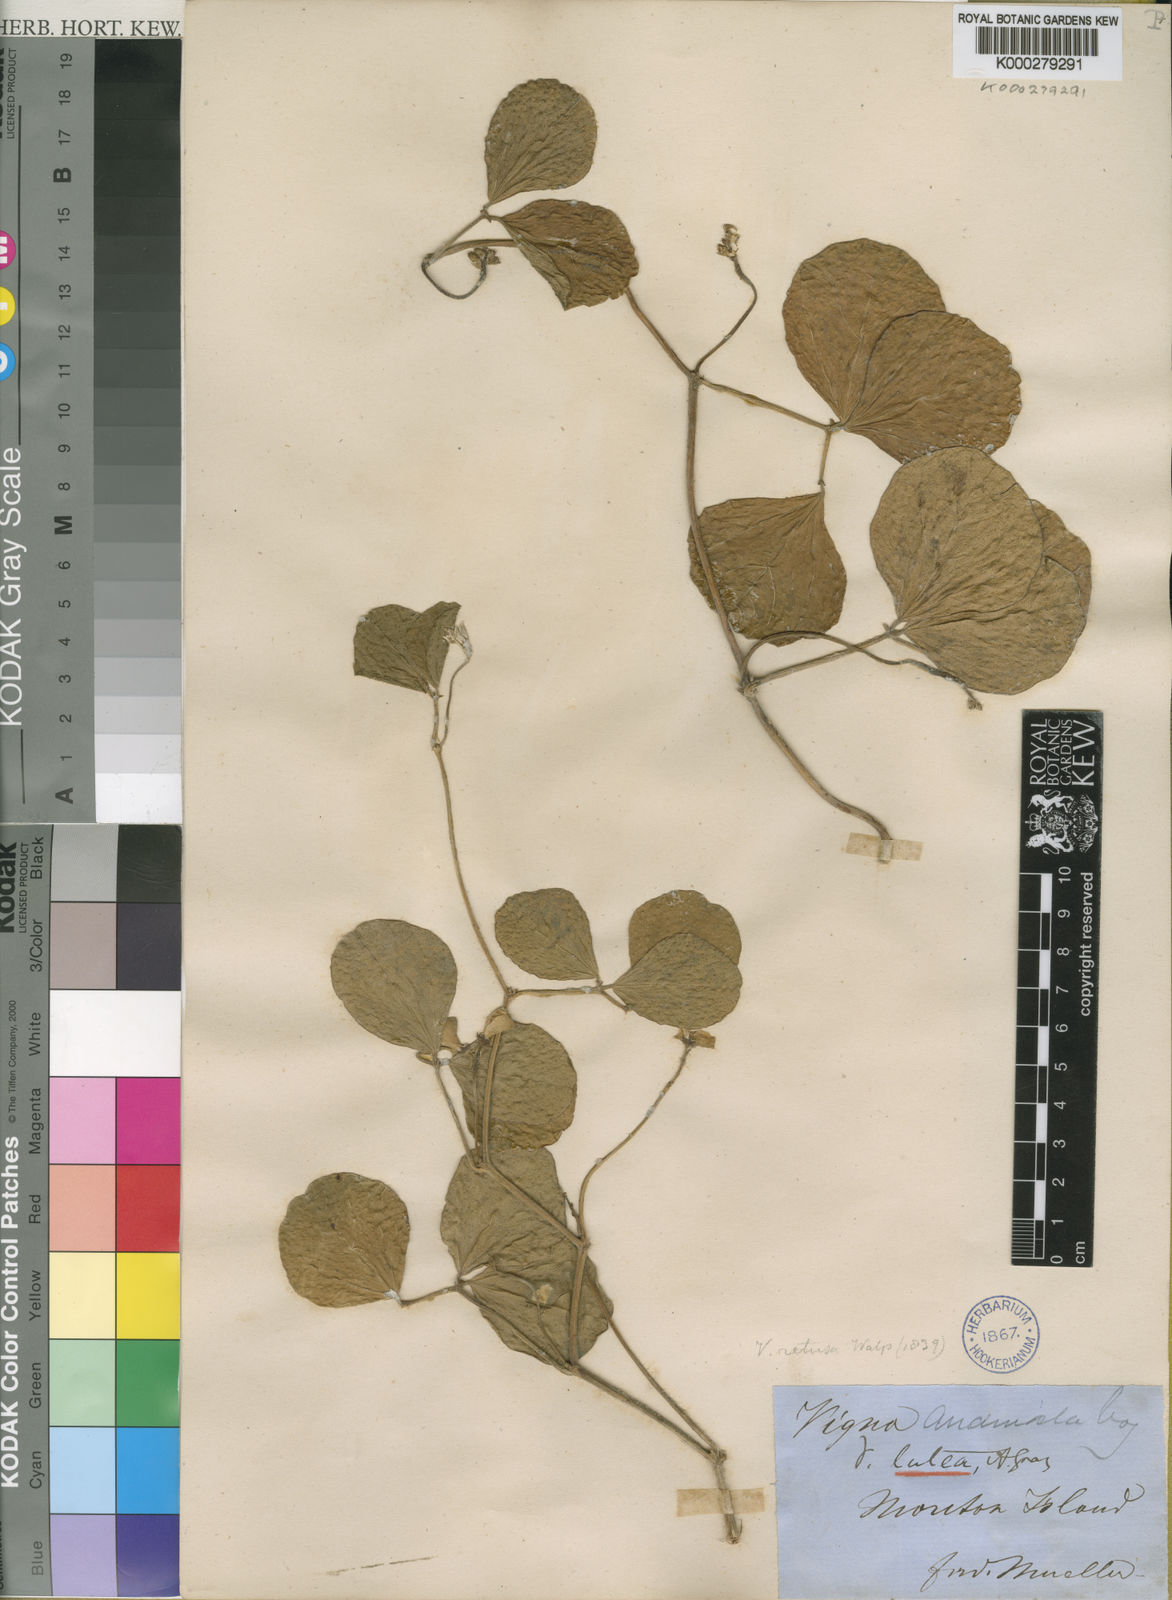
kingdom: Plantae
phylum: Tracheophyta
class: Magnoliopsida
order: Fabales
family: Fabaceae
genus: Vigna
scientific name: Vigna marina
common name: Dune-bean
